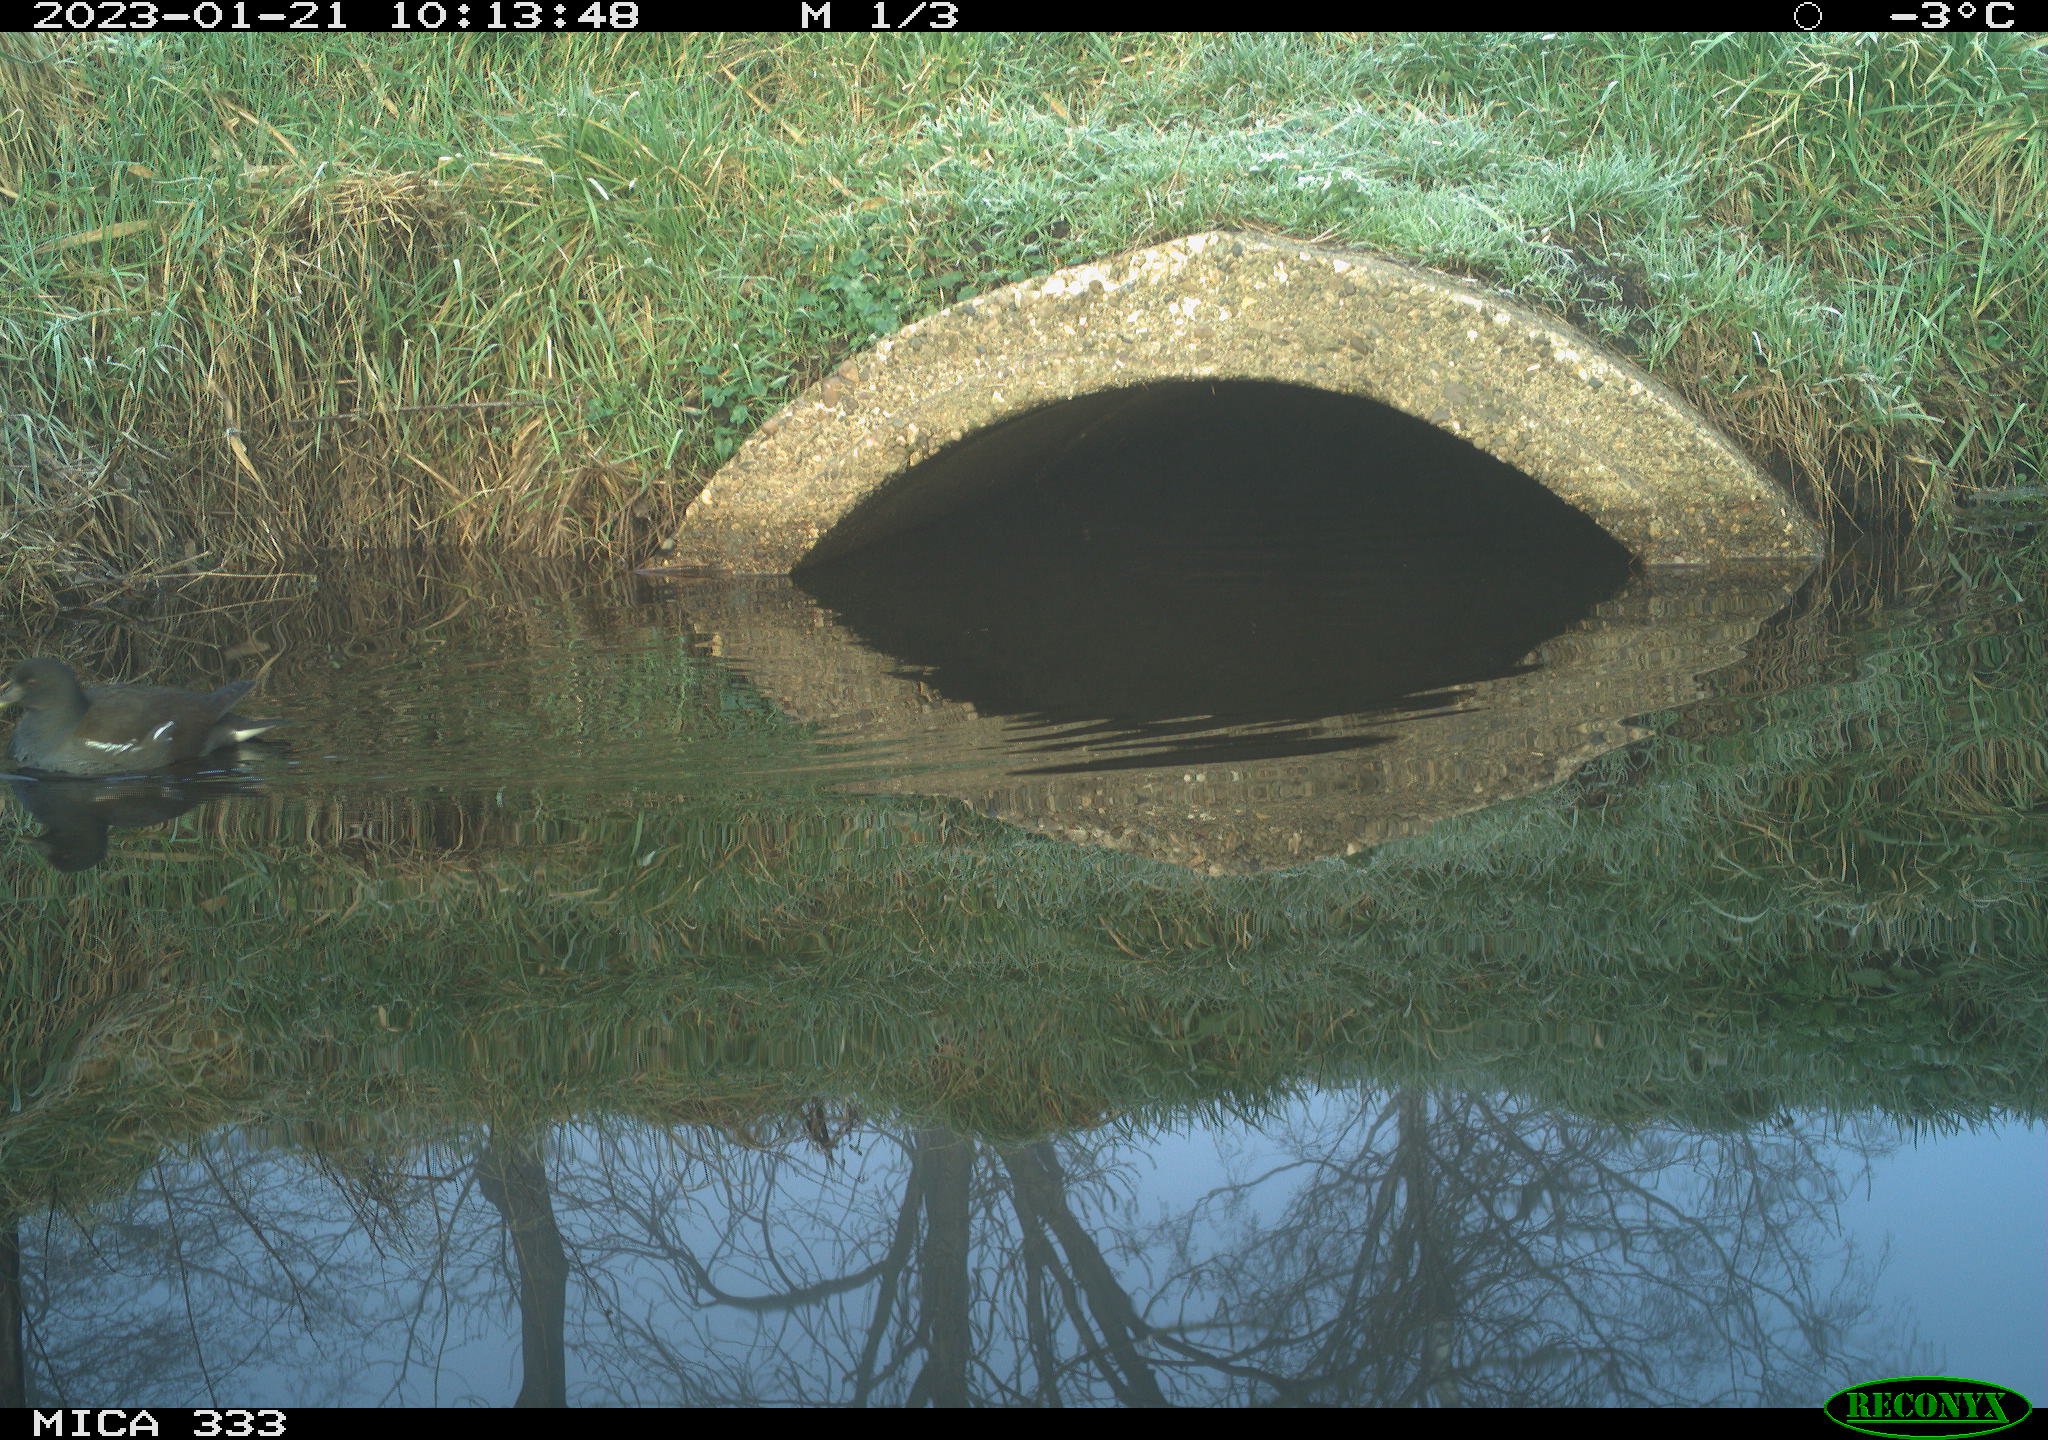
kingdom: Animalia
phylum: Chordata
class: Aves
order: Gruiformes
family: Rallidae
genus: Gallinula
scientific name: Gallinula chloropus
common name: Common moorhen
